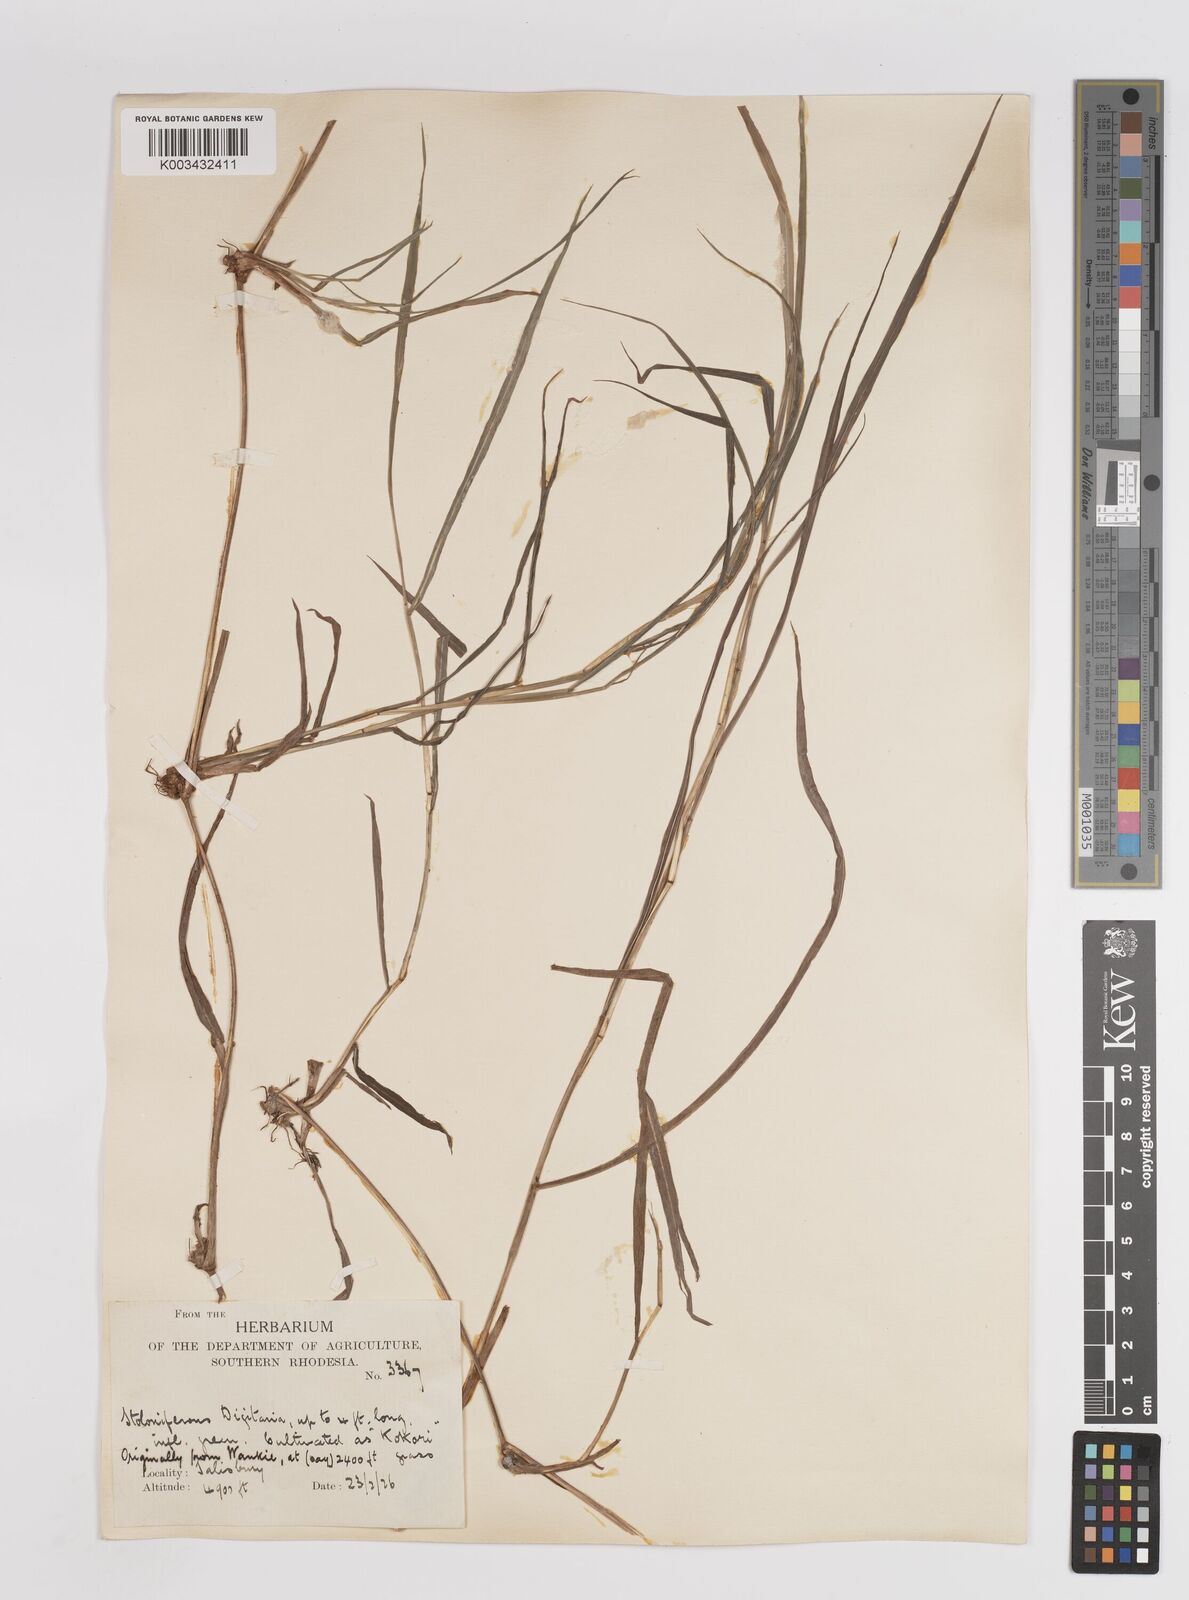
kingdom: Plantae
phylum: Tracheophyta
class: Liliopsida
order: Poales
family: Poaceae
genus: Digitaria
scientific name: Digitaria eriantha
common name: Digitgrass
